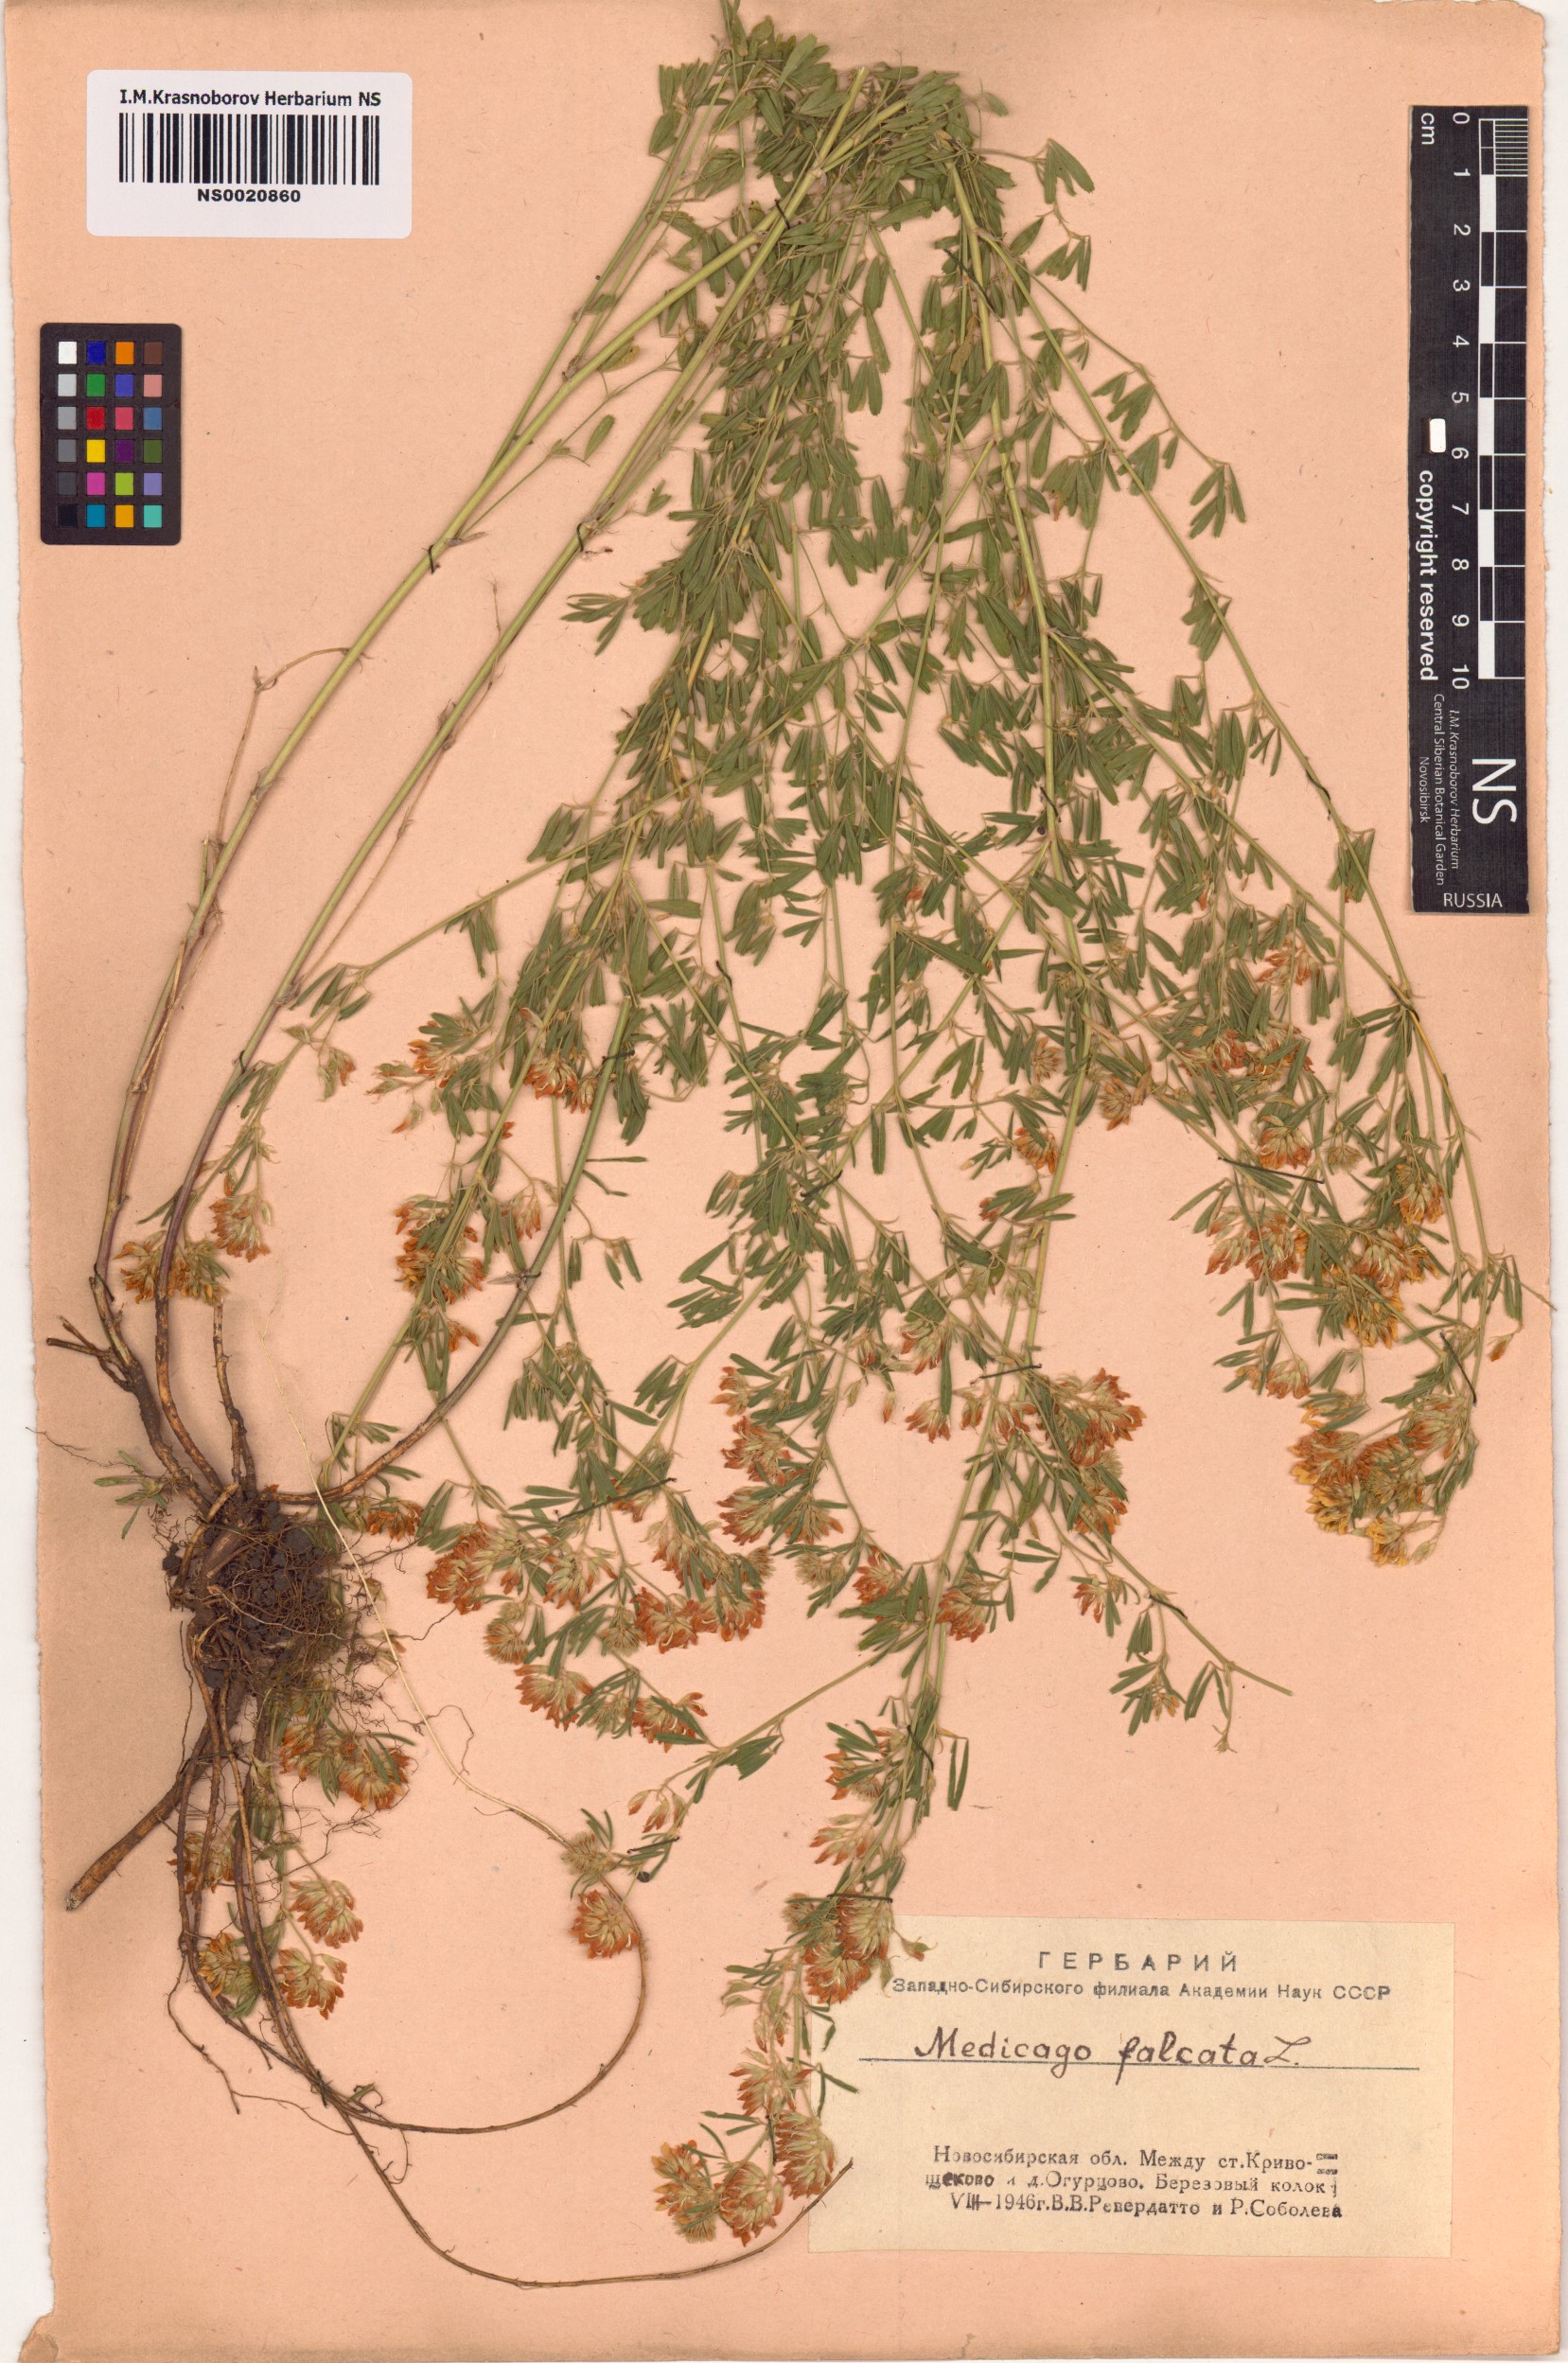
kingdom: Plantae
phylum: Tracheophyta
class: Magnoliopsida
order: Fabales
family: Fabaceae
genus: Medicago
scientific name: Medicago falcata
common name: Sickle medick
